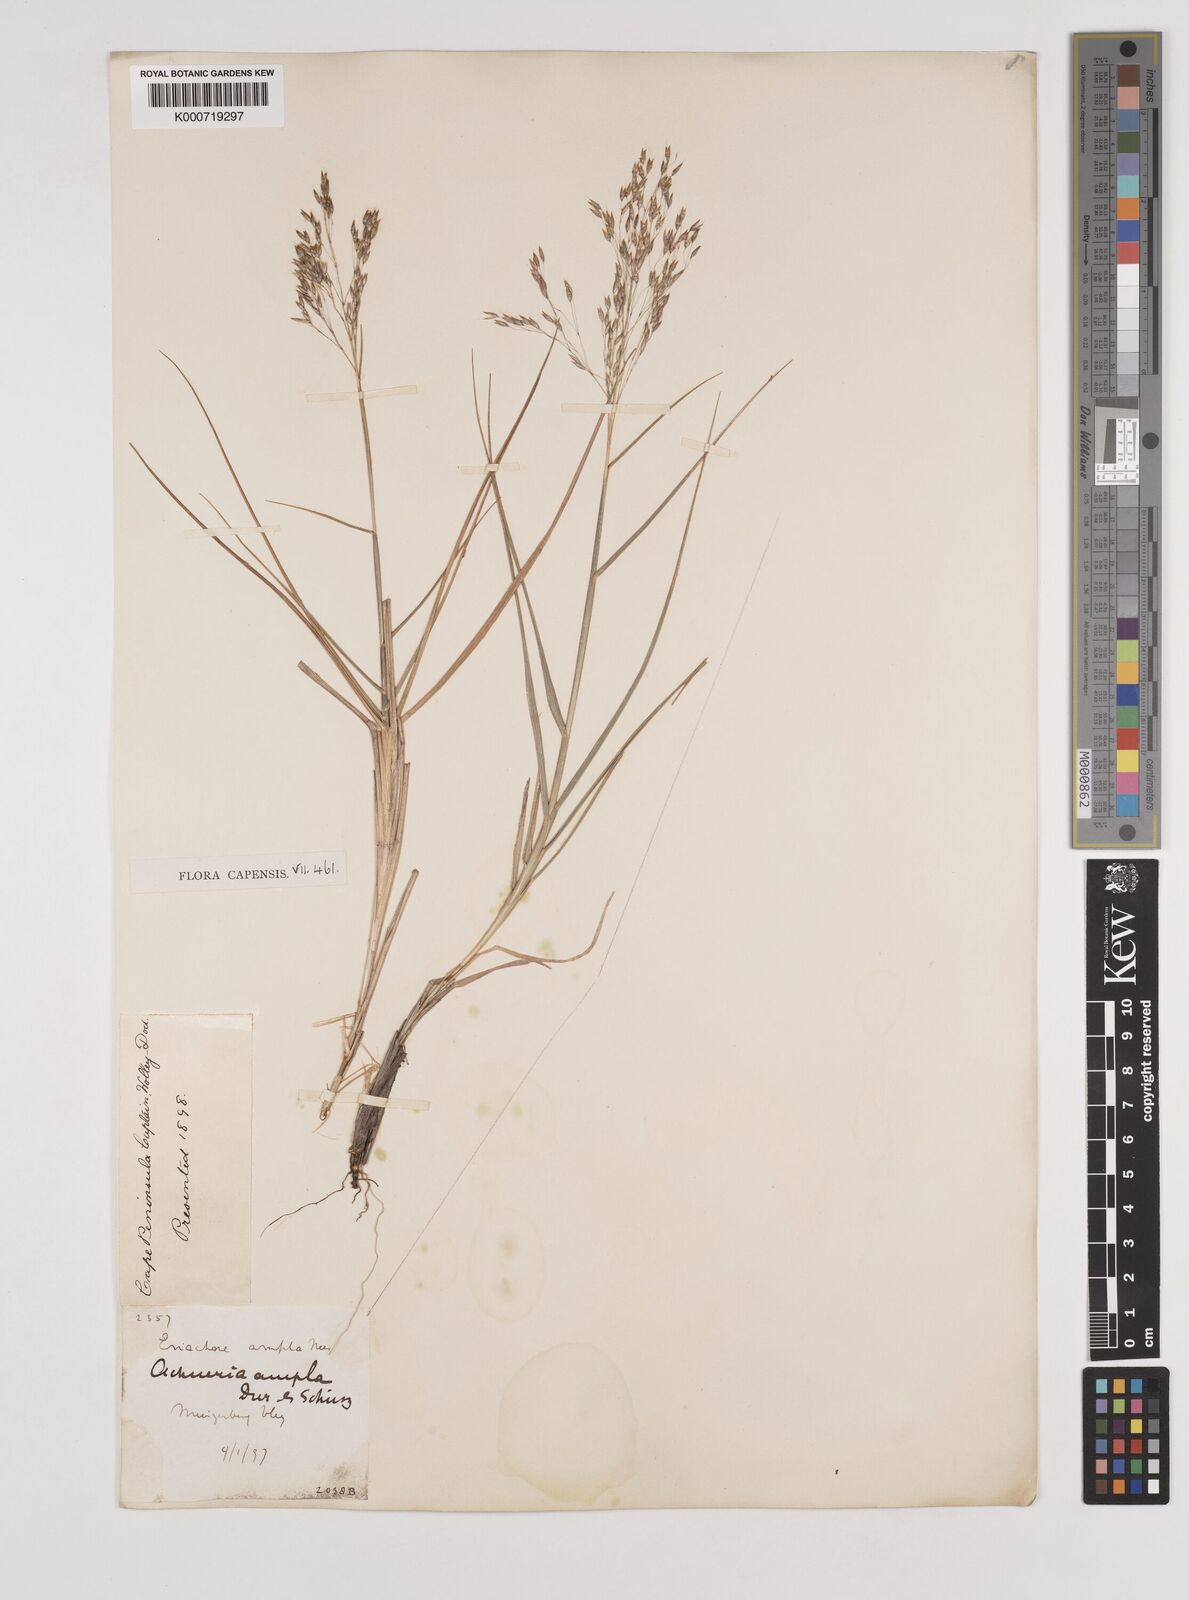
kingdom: Plantae
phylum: Tracheophyta
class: Liliopsida
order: Poales
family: Poaceae
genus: Pentameris
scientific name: Pentameris ampla
